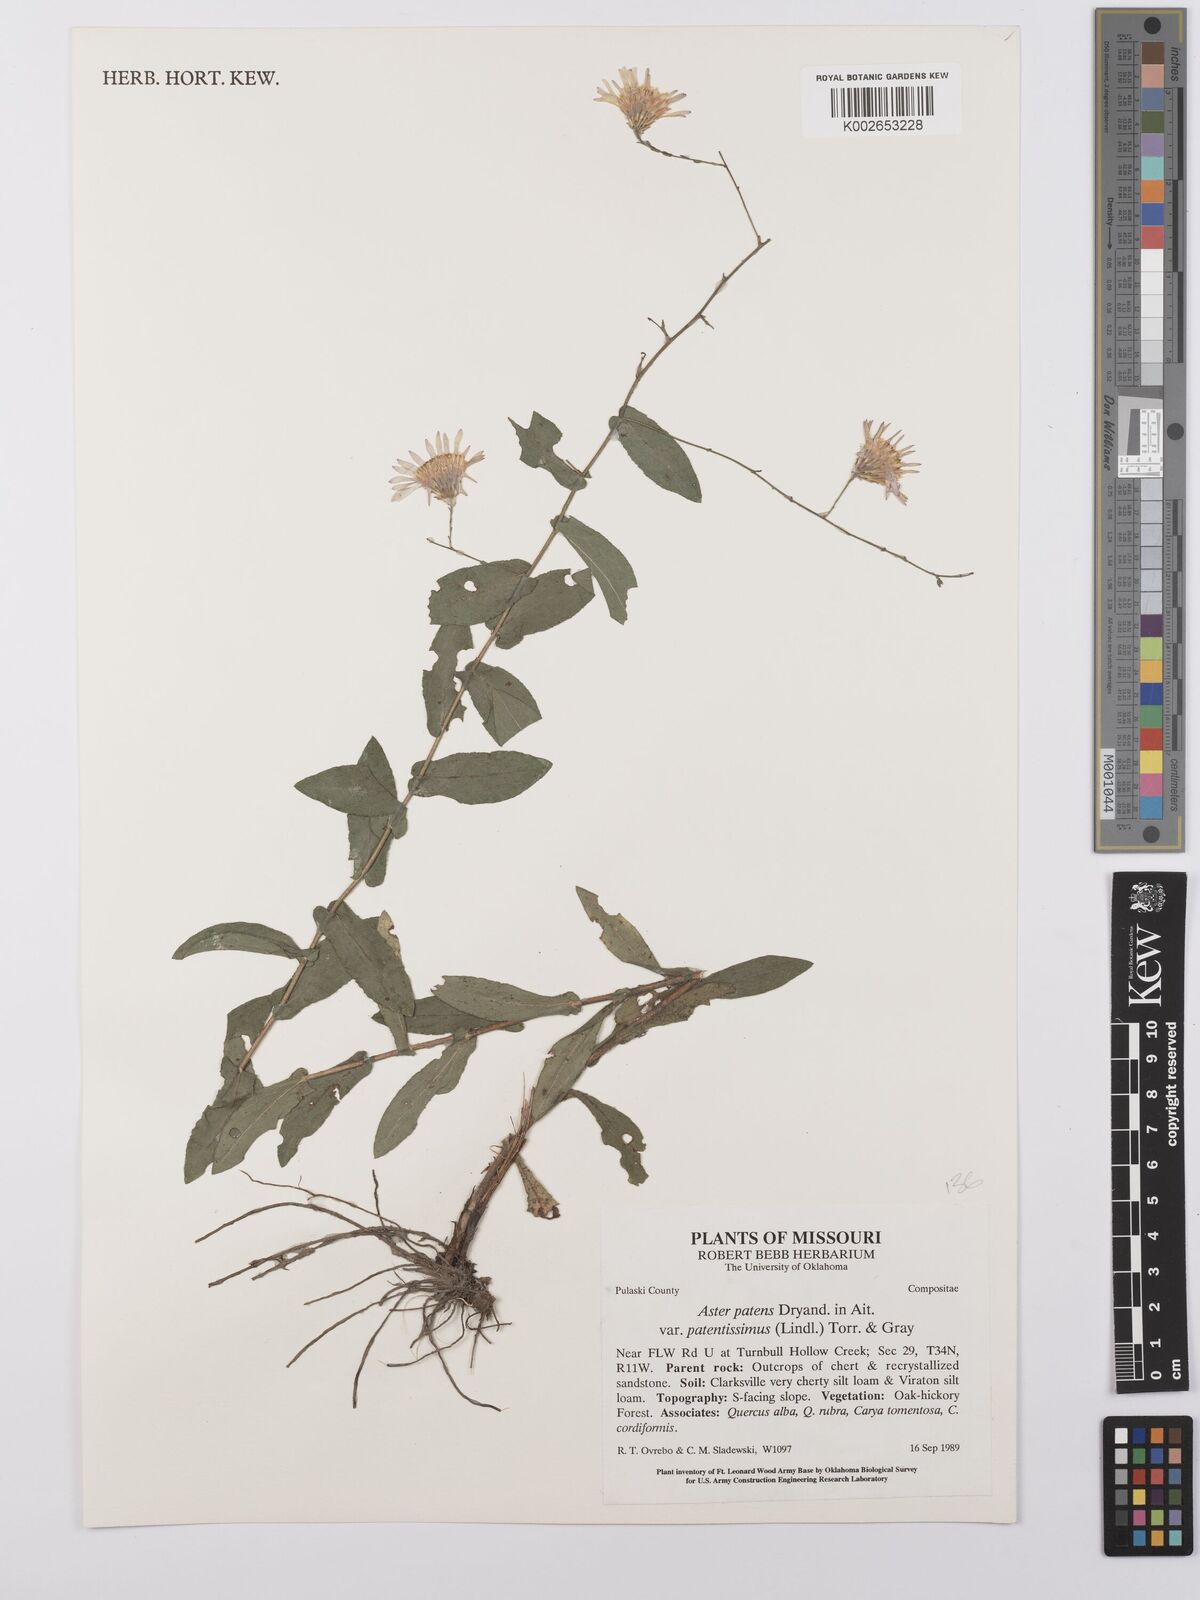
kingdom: Plantae
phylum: Tracheophyta
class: Magnoliopsida
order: Asterales
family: Asteraceae
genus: Symphyotrichum
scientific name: Symphyotrichum patens
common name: Late purple aster
